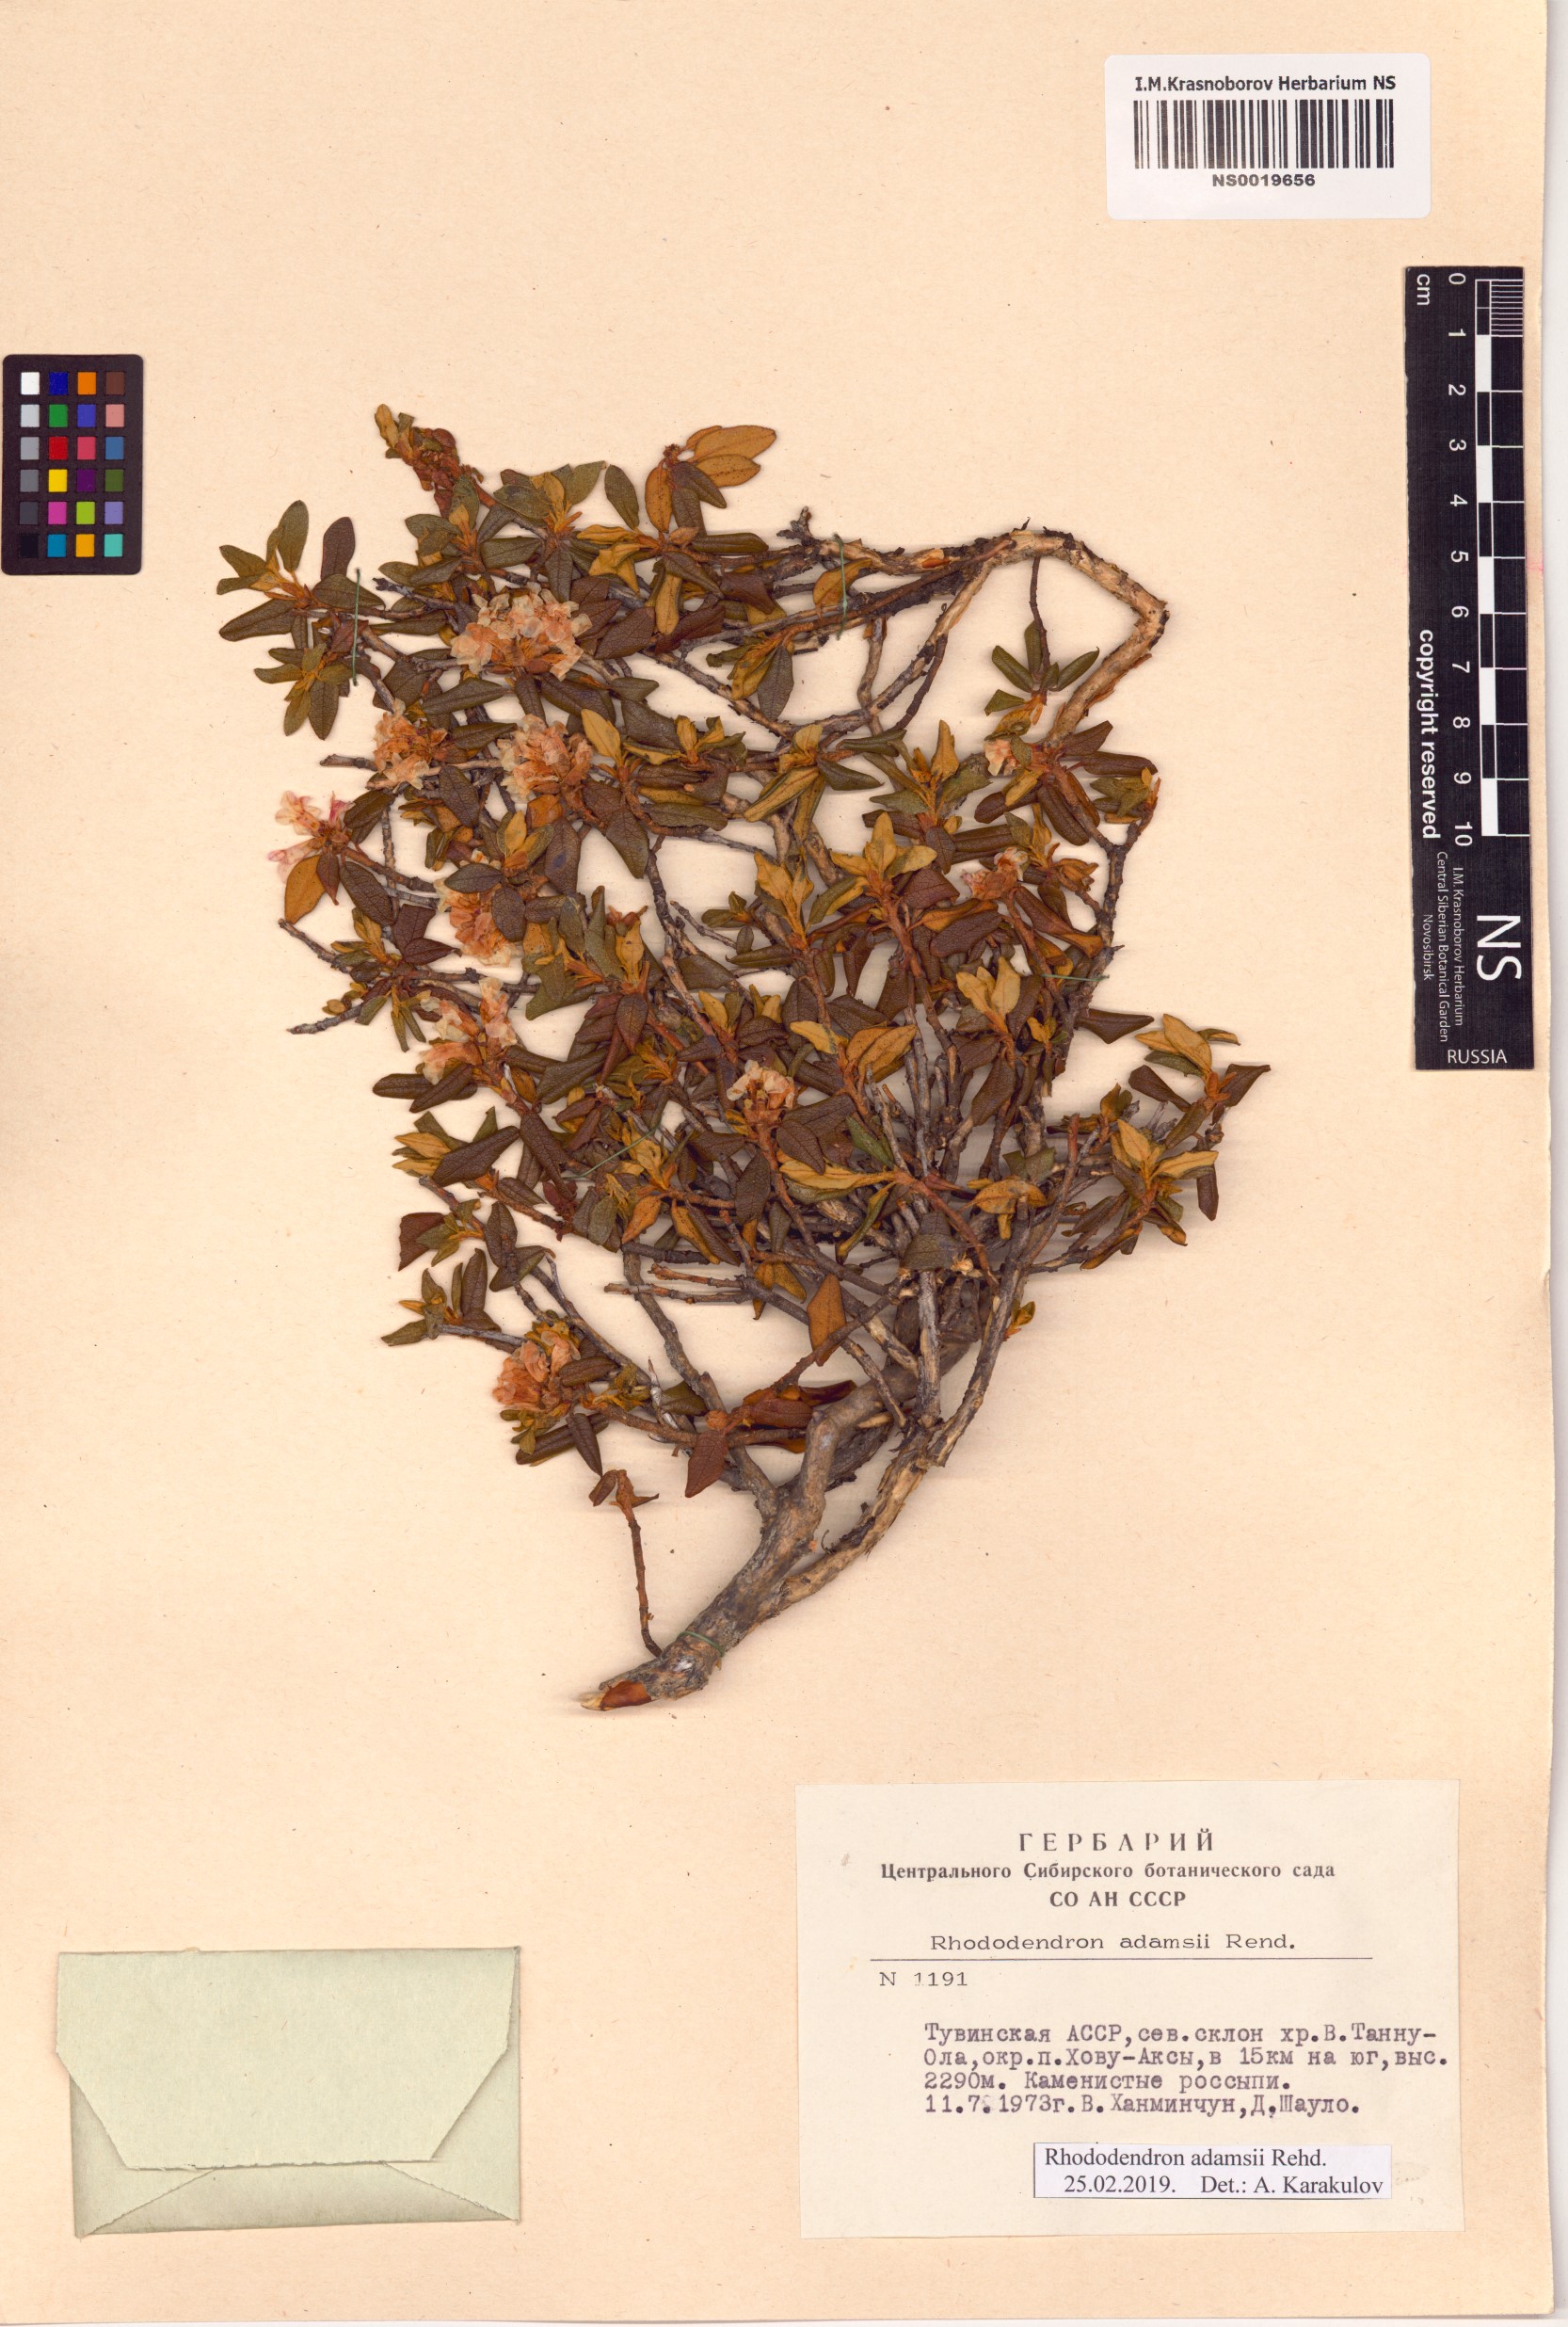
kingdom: Plantae
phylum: Tracheophyta
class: Magnoliopsida
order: Ericales
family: Ericaceae
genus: Rhododendron
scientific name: Rhododendron adamsii
